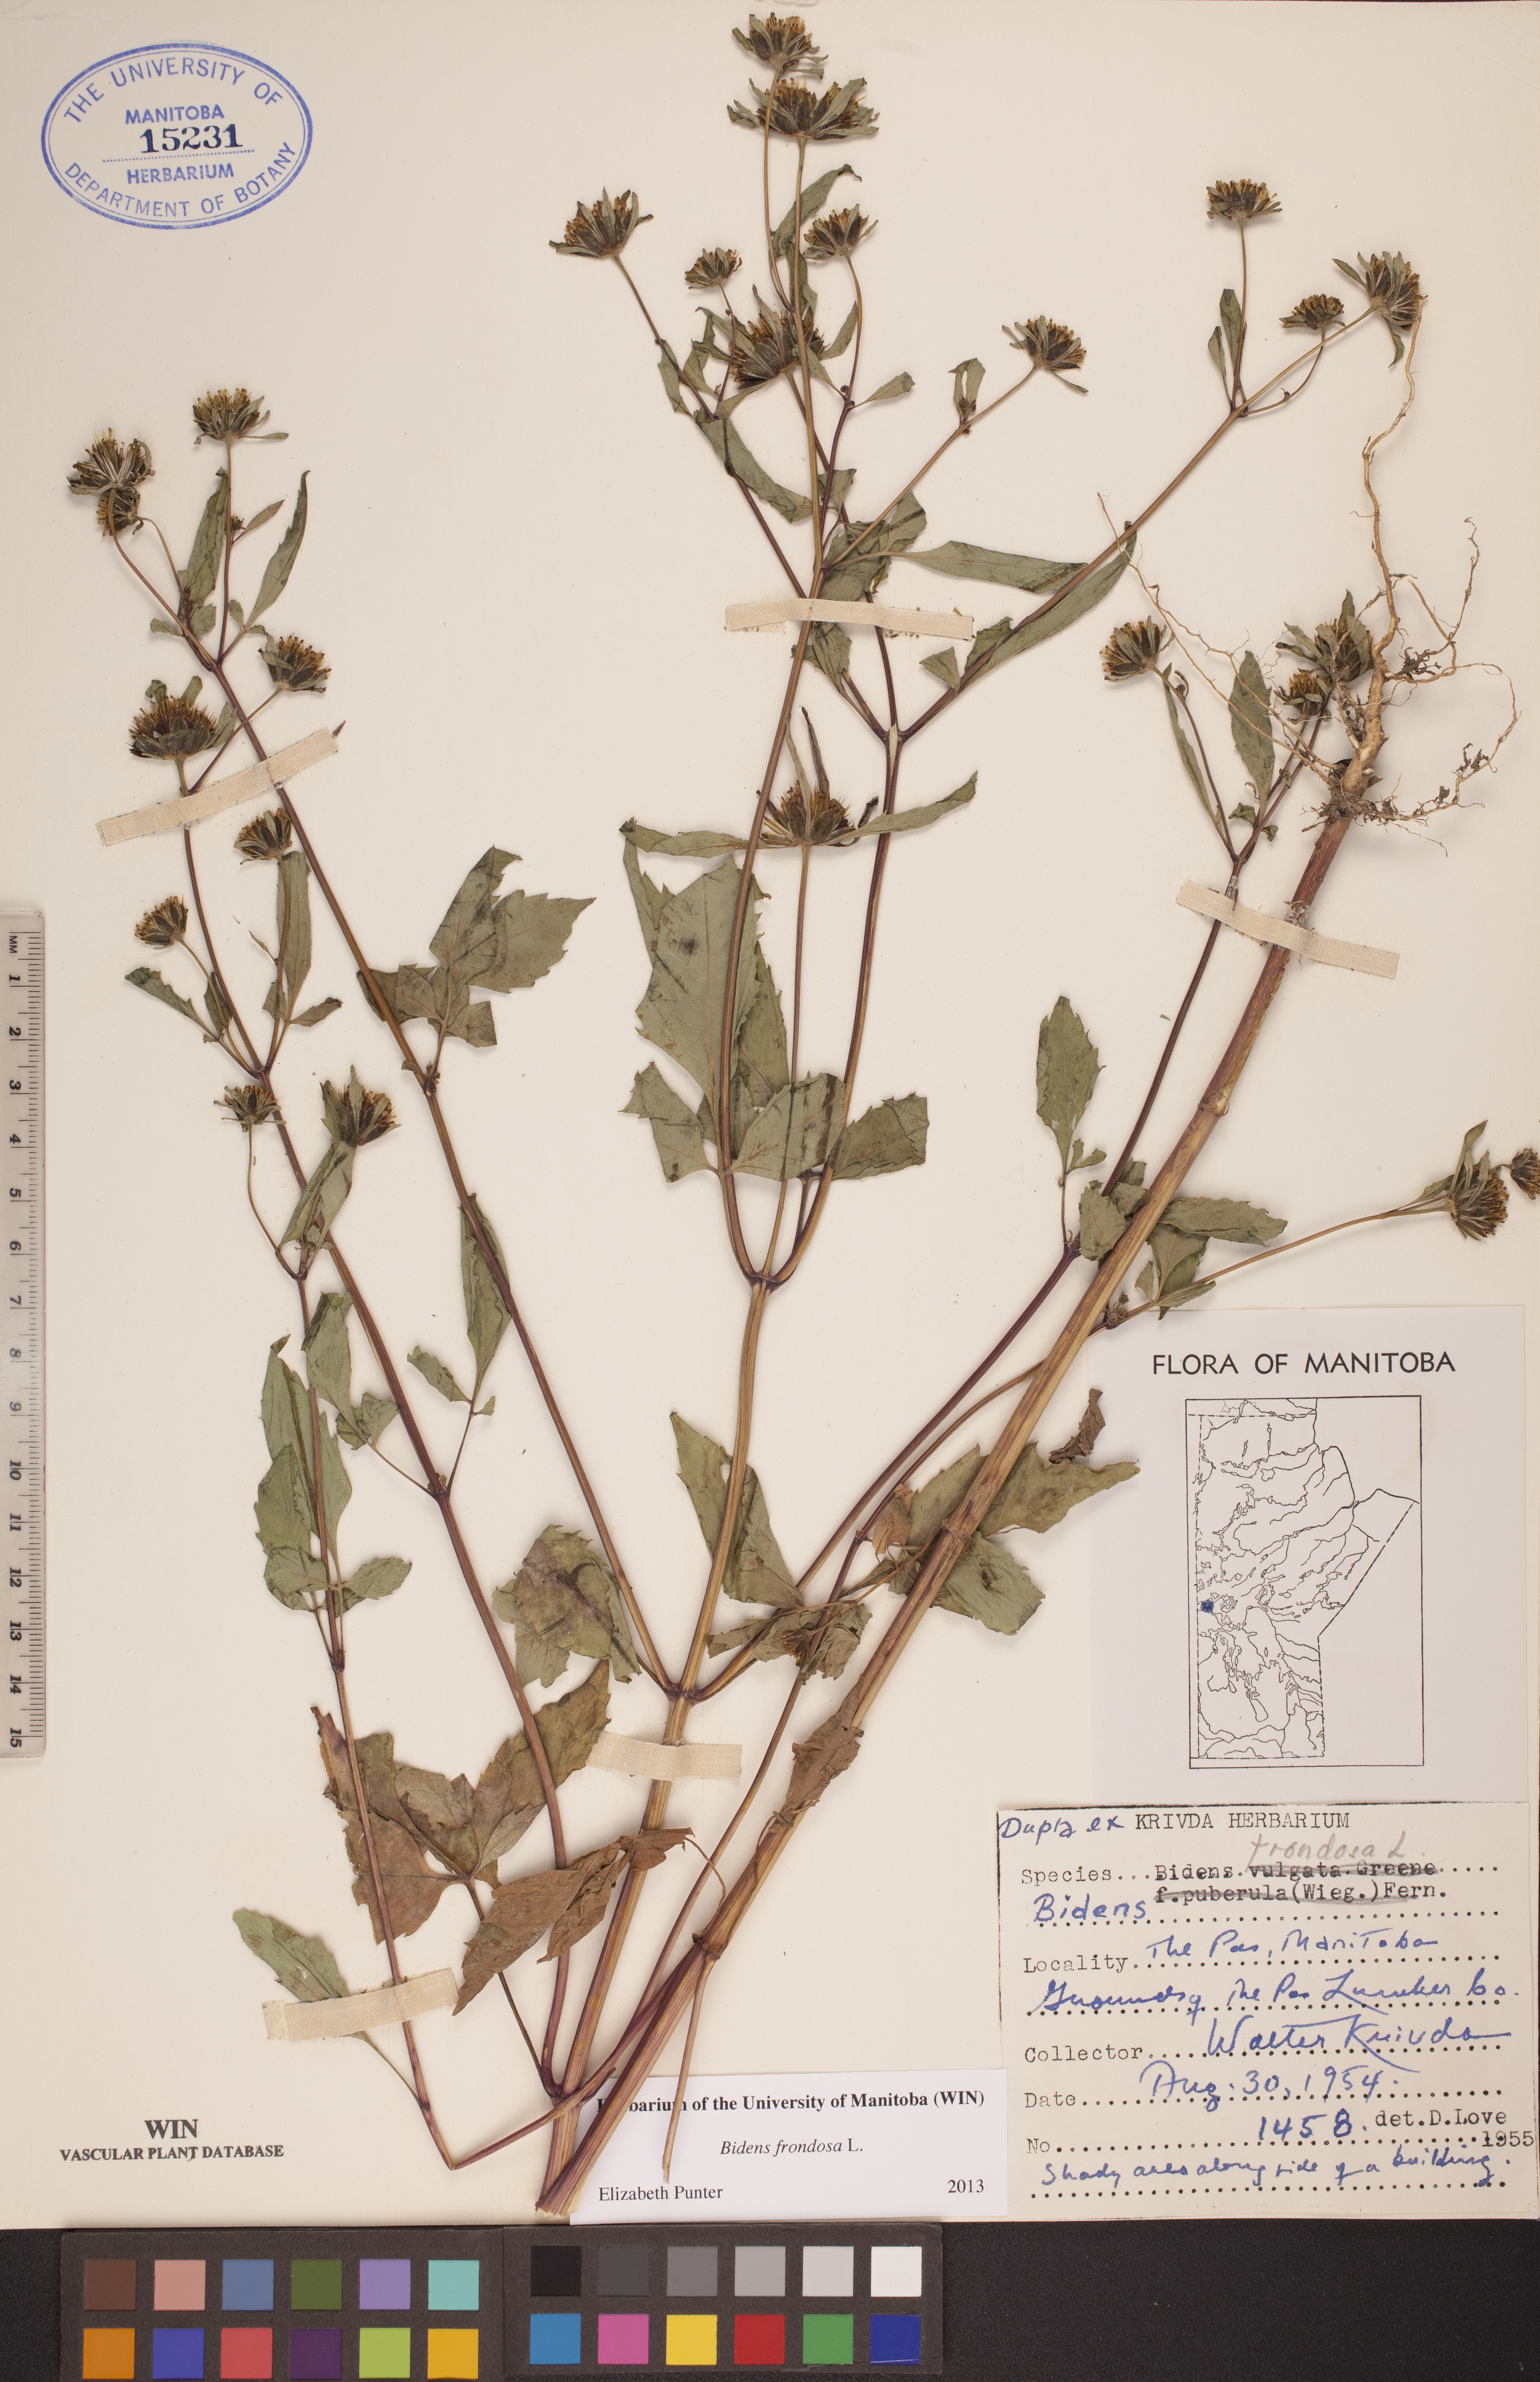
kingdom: Plantae
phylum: Tracheophyta
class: Magnoliopsida
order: Asterales
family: Asteraceae
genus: Bidens
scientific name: Bidens frondosa
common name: Beggarticks
